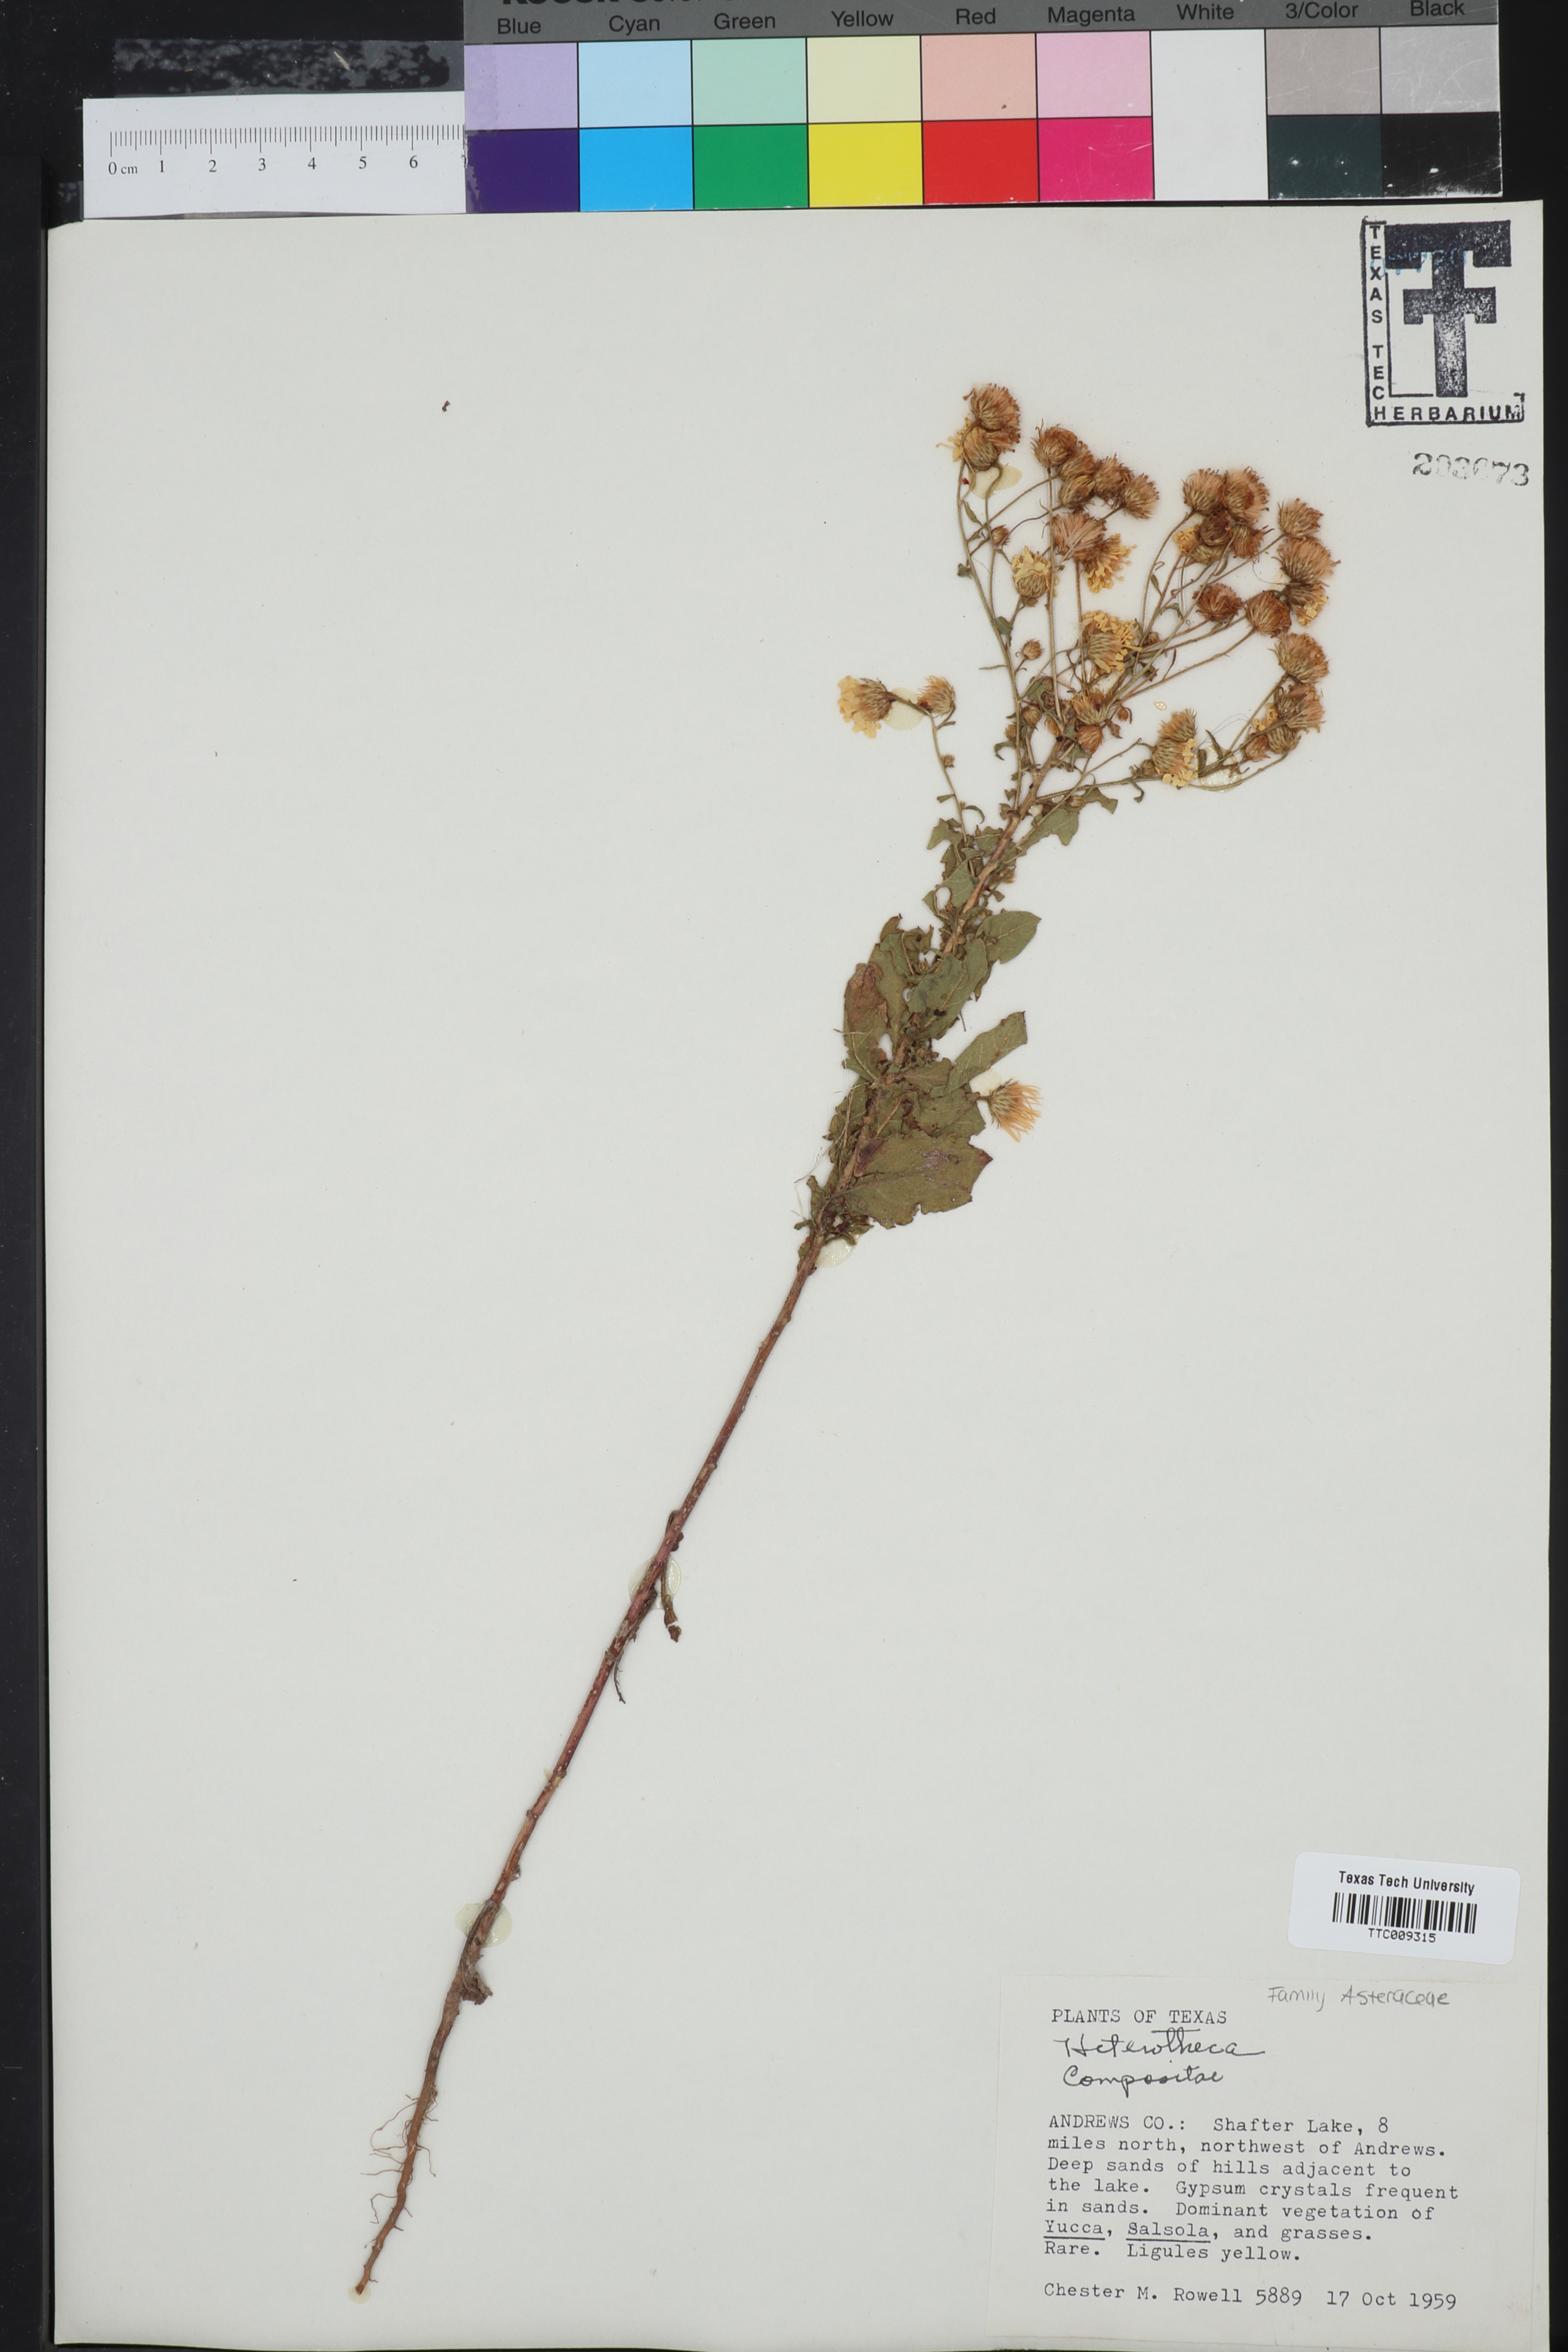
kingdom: Plantae
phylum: Tracheophyta
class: Magnoliopsida
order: Asterales
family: Asteraceae
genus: Heterotheca
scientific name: Heterotheca
